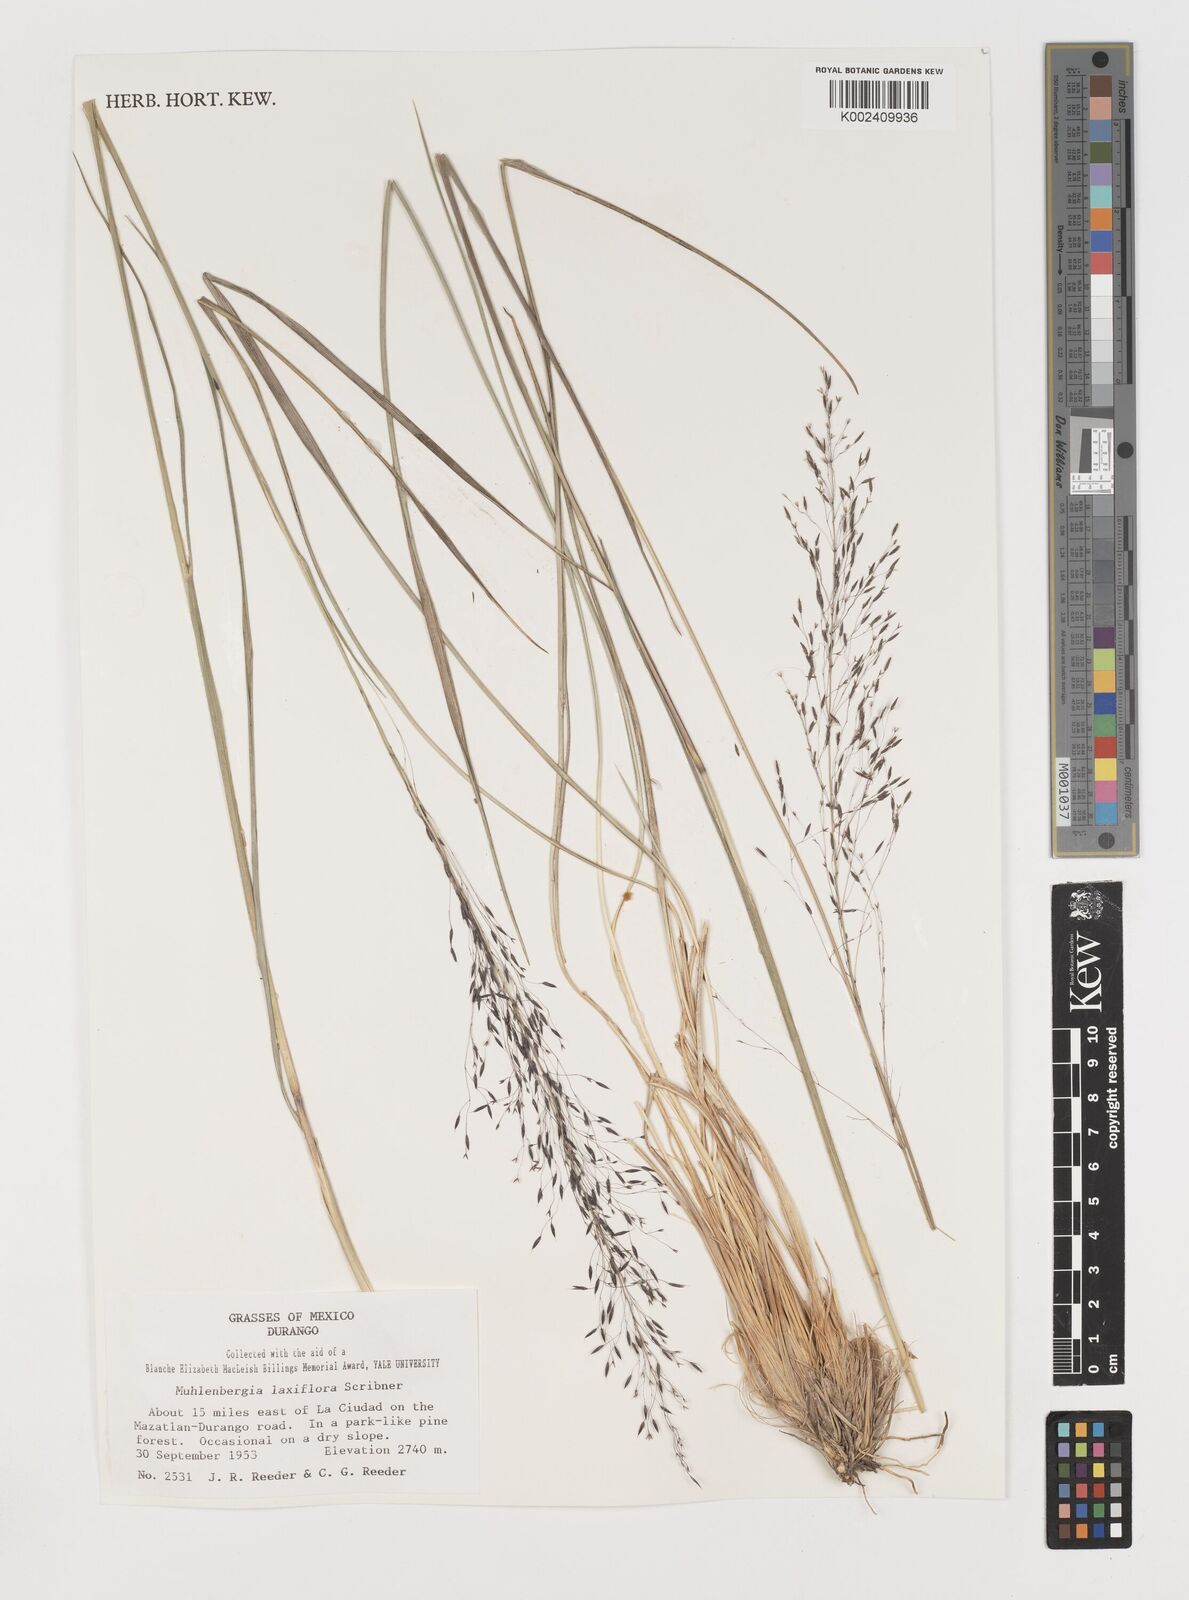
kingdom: Plantae
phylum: Tracheophyta
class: Liliopsida
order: Poales
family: Poaceae
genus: Muhlenbergia
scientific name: Muhlenbergia mucronata
